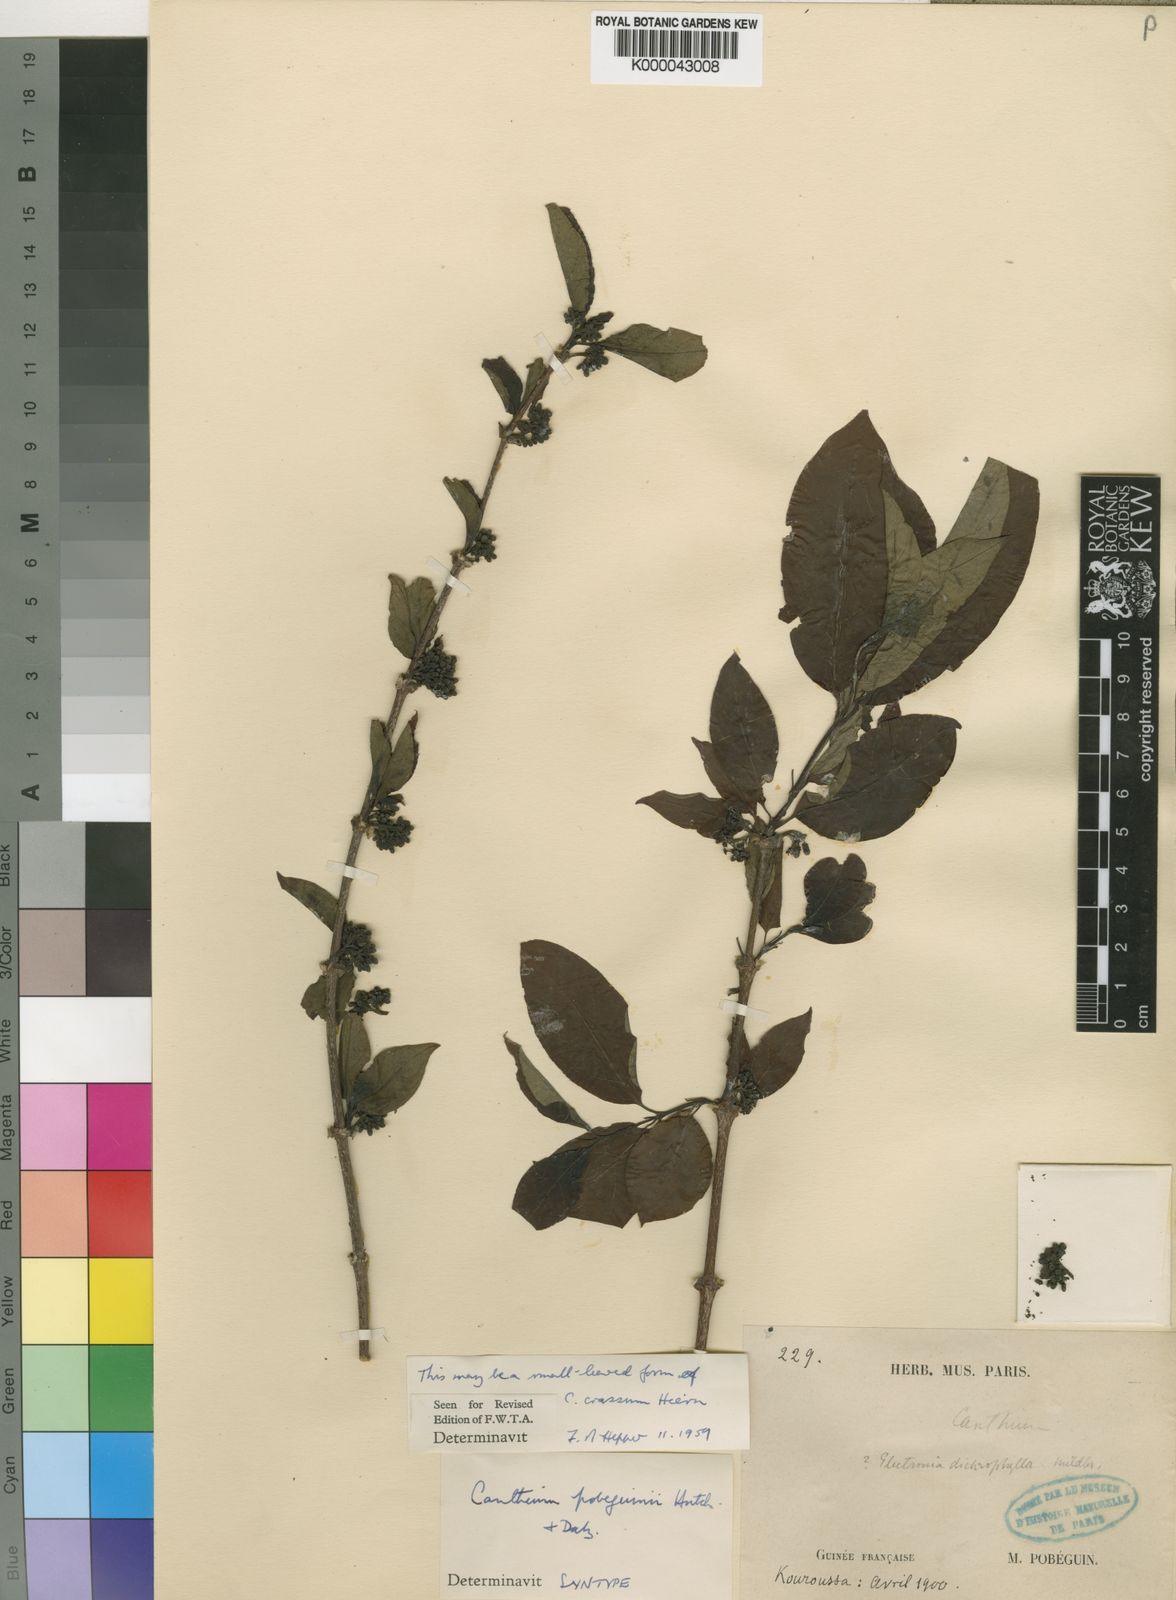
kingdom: Plantae
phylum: Tracheophyta
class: Magnoliopsida
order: Gentianales
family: Rubiaceae
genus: Multidentia
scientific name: Multidentia pobeguinii
